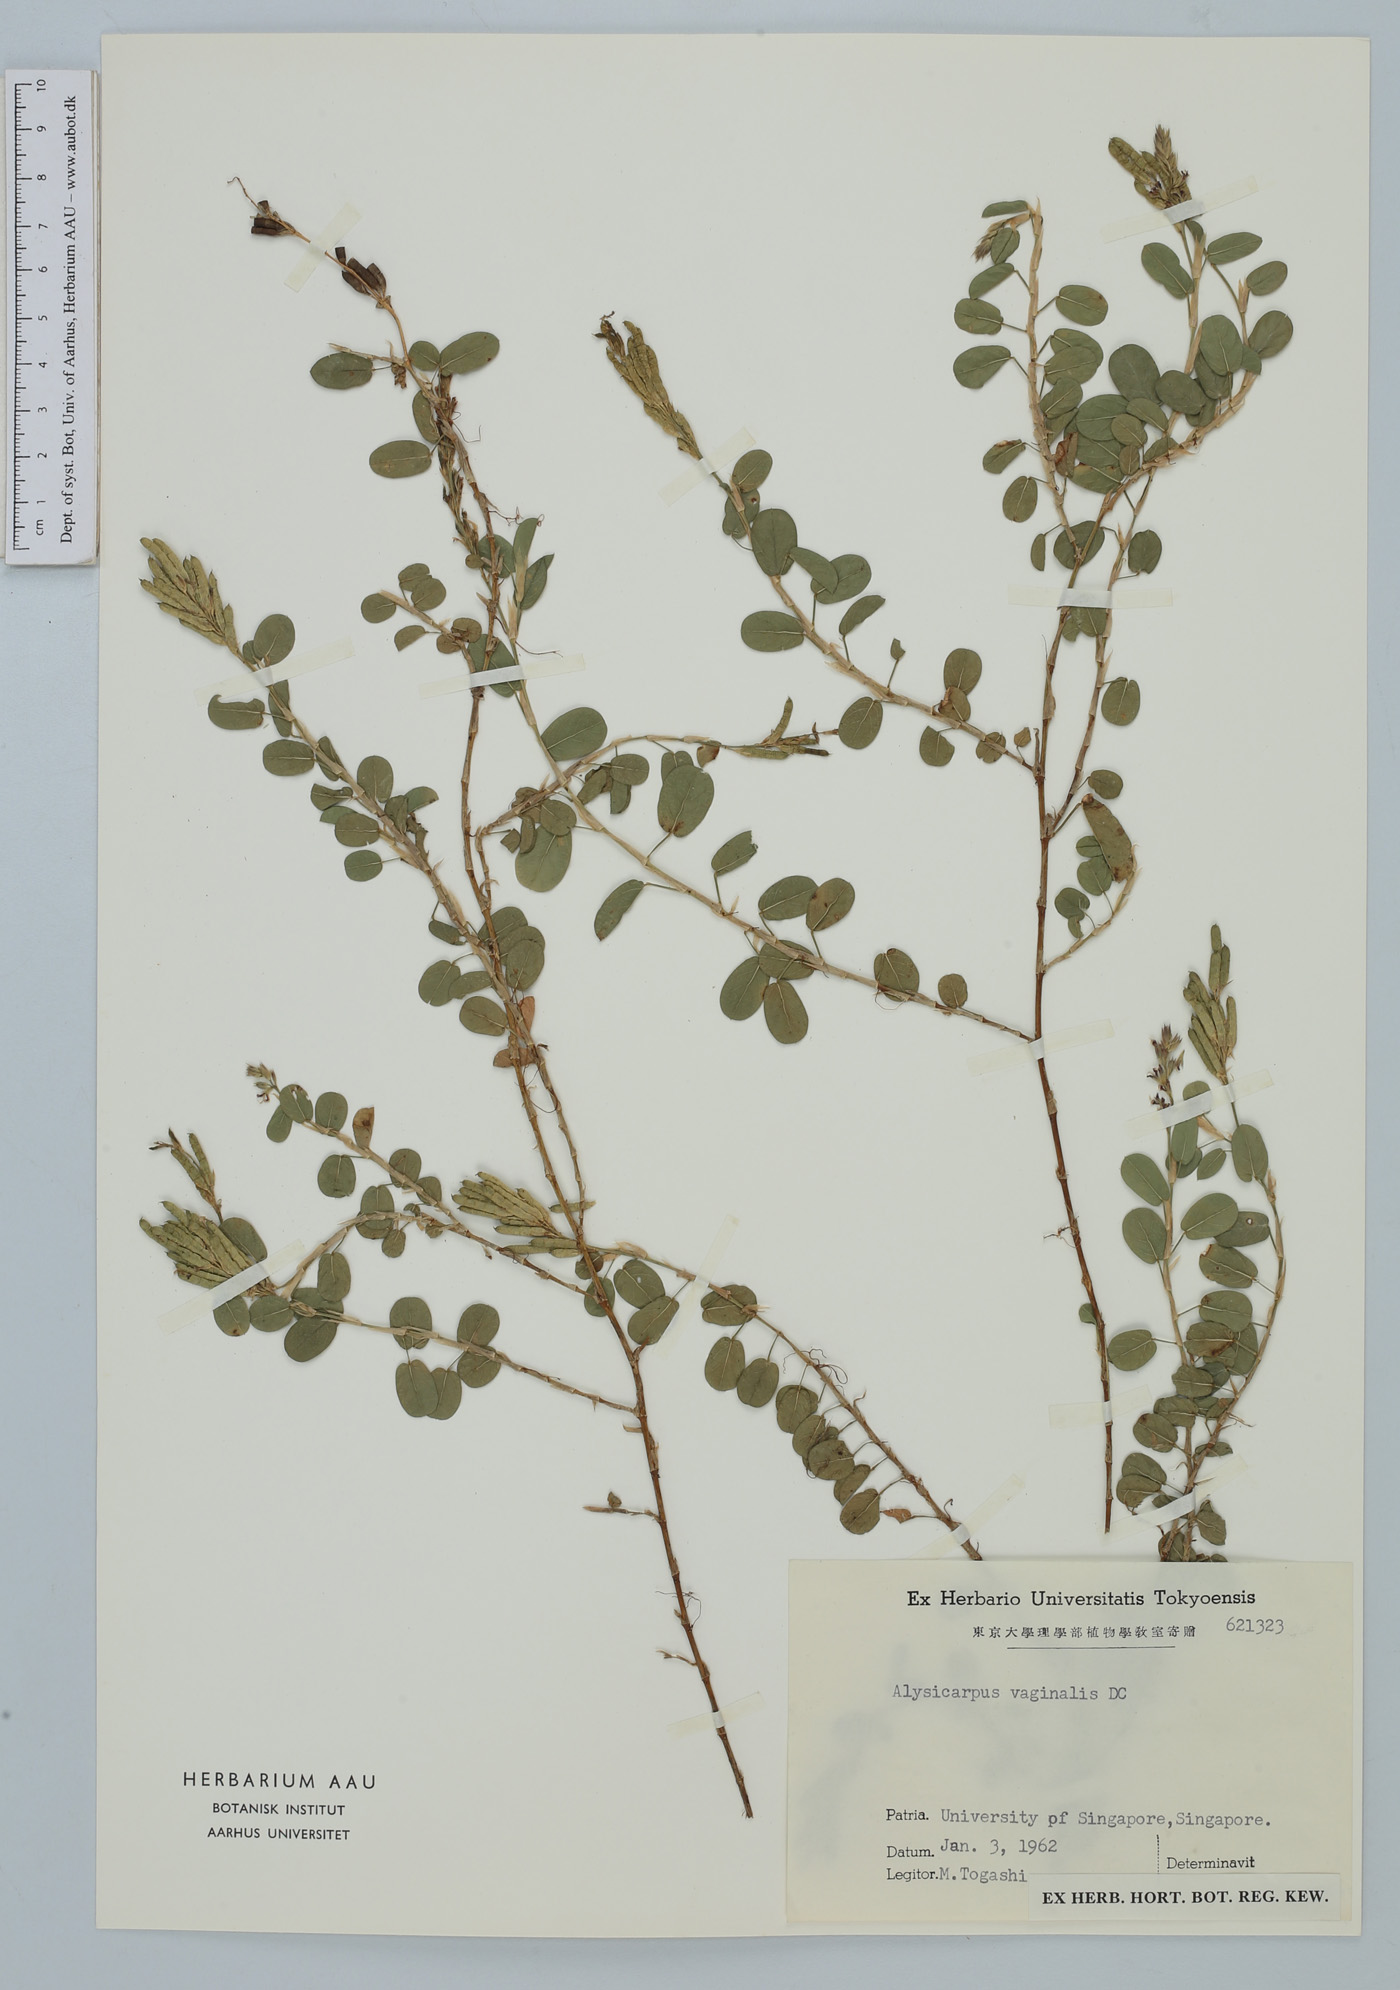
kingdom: Plantae
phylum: Tracheophyta
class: Magnoliopsida
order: Fabales
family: Fabaceae
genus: Alysicarpus
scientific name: Alysicarpus vaginalis
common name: White moneywort
